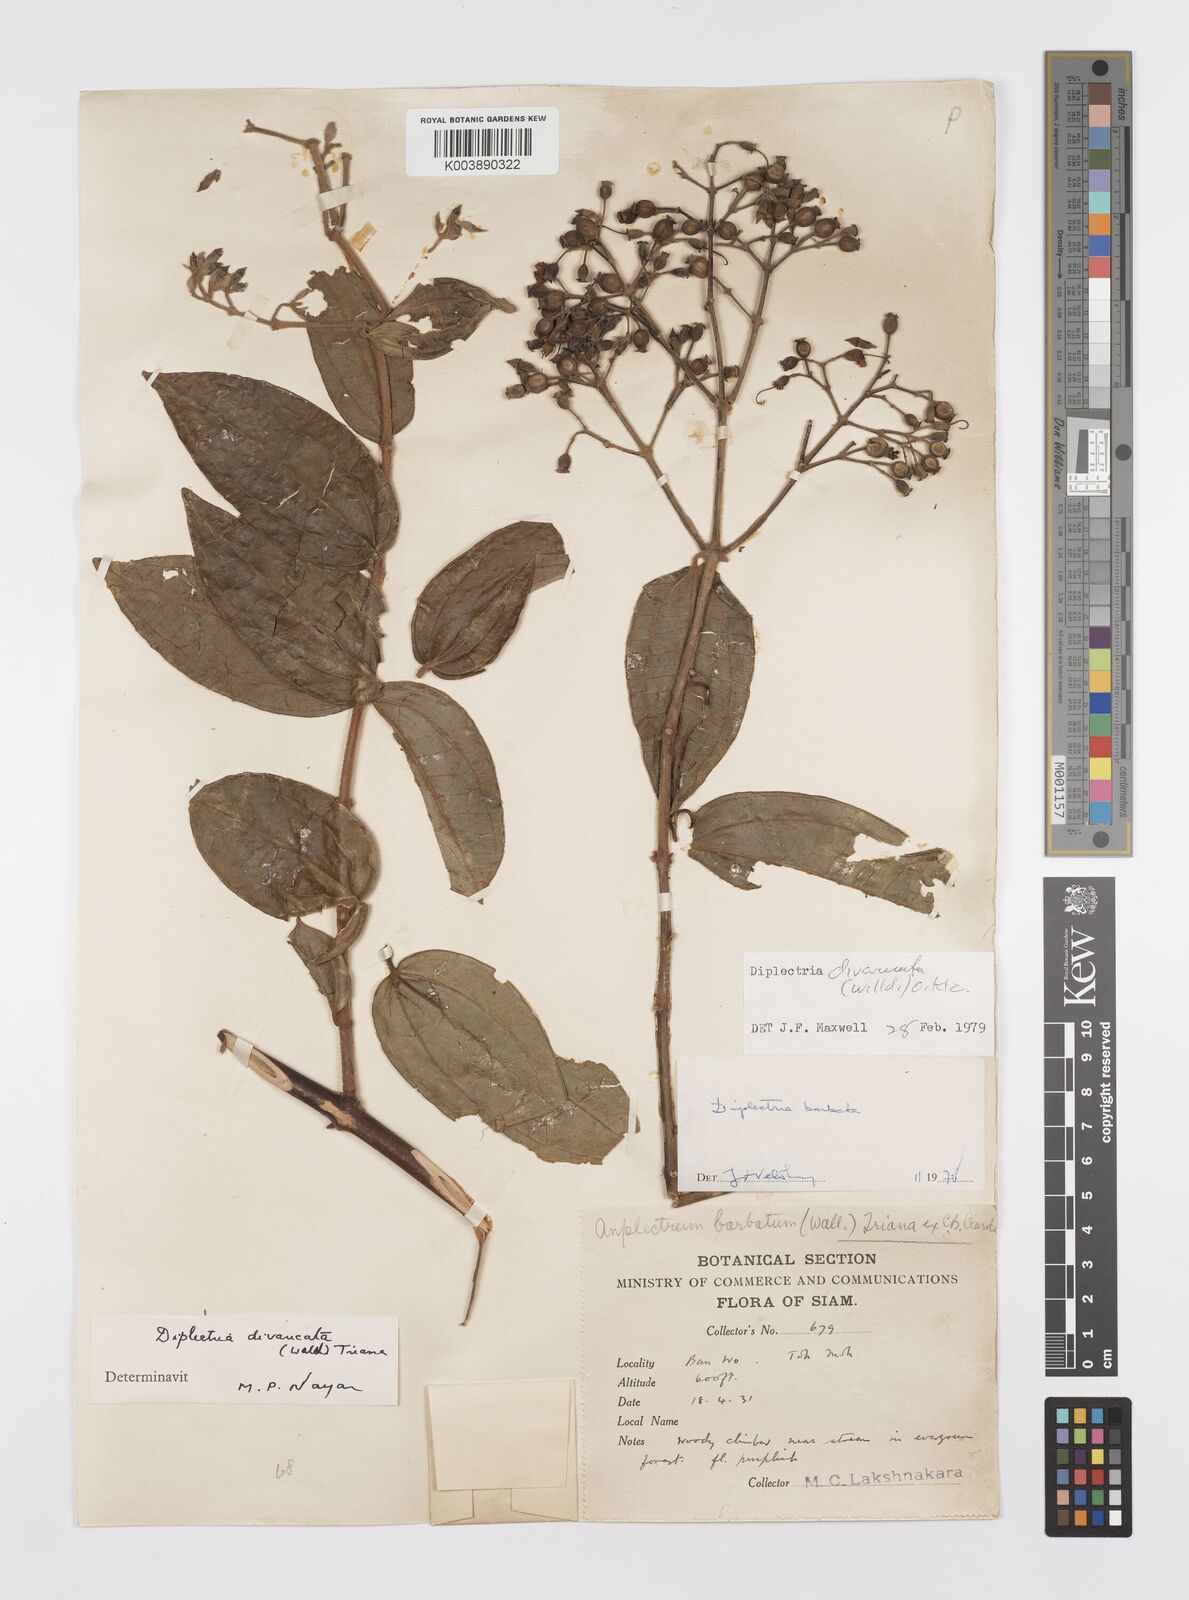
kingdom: Plantae
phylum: Tracheophyta
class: Magnoliopsida
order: Myrtales
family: Melastomataceae
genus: Diplectria
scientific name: Diplectria divaricata
